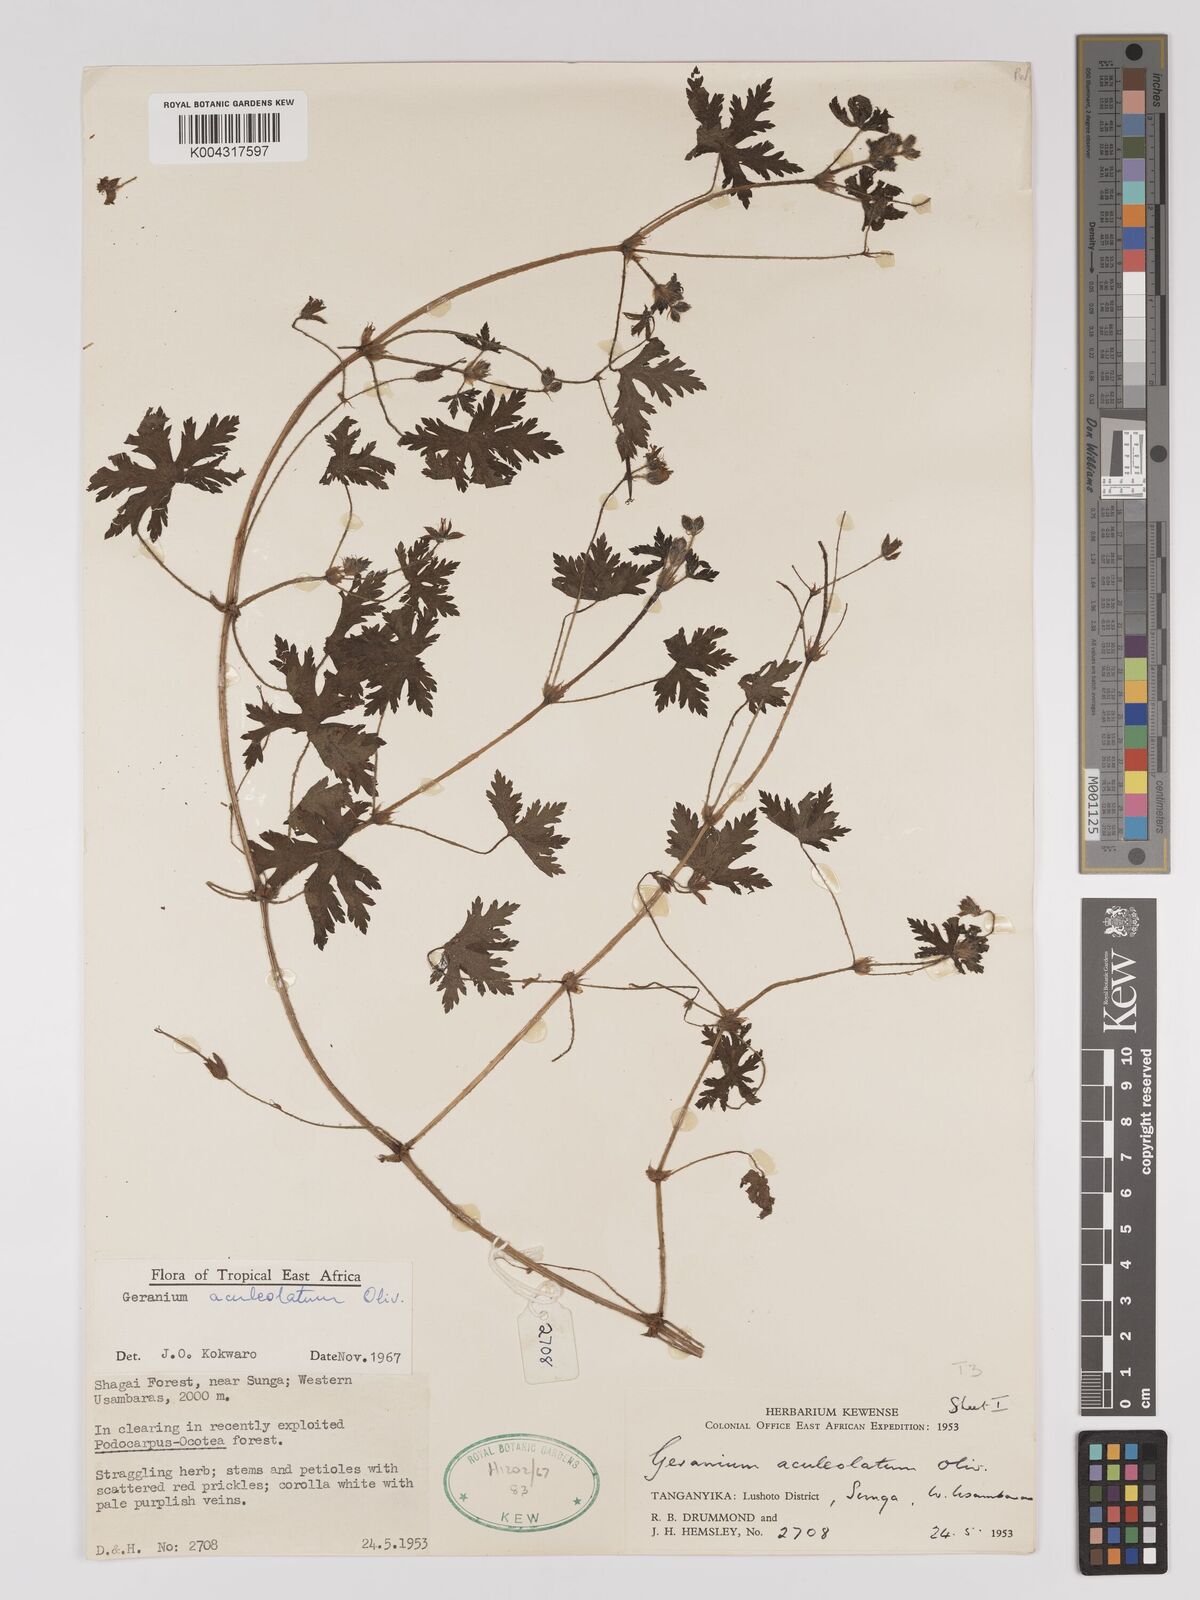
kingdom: Plantae
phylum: Tracheophyta
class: Magnoliopsida
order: Geraniales
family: Geraniaceae
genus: Geranium
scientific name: Geranium aculeolatum
